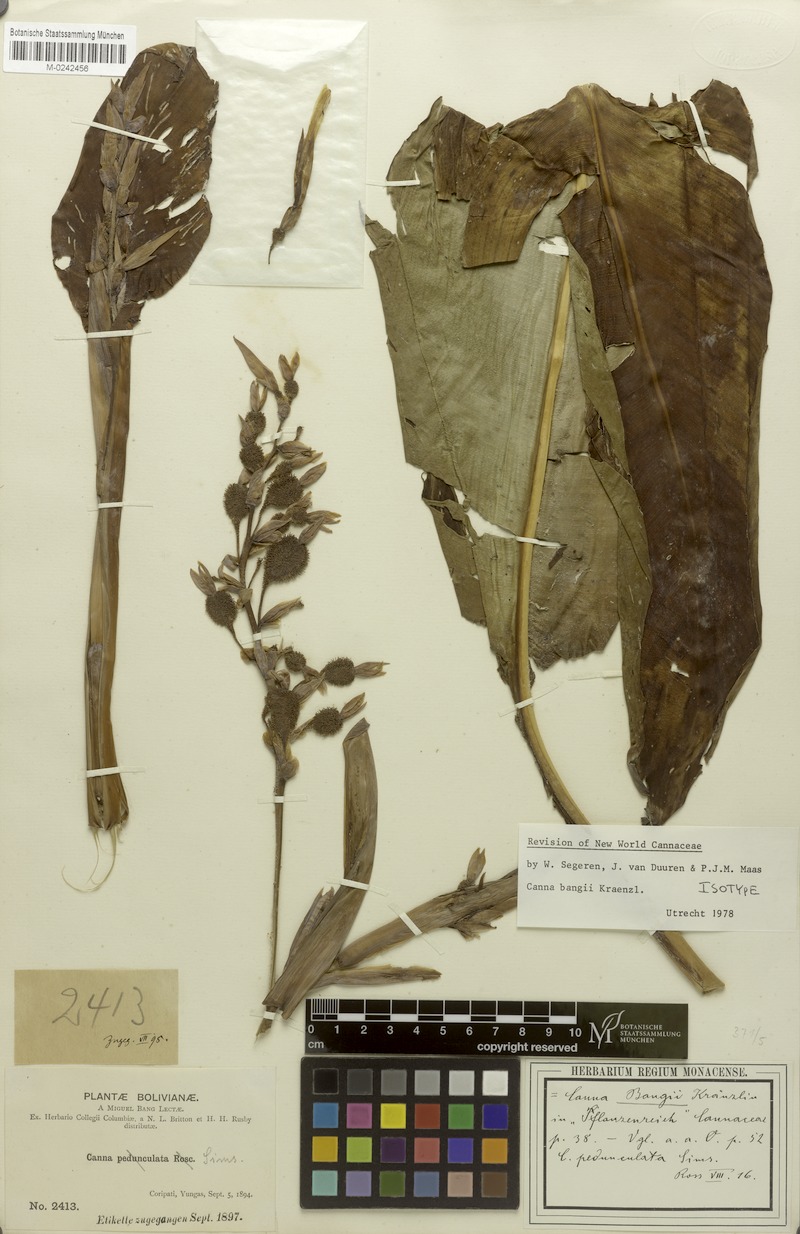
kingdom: Plantae
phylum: Tracheophyta
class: Liliopsida
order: Zingiberales
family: Cannaceae
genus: Canna
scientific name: Canna bangii
